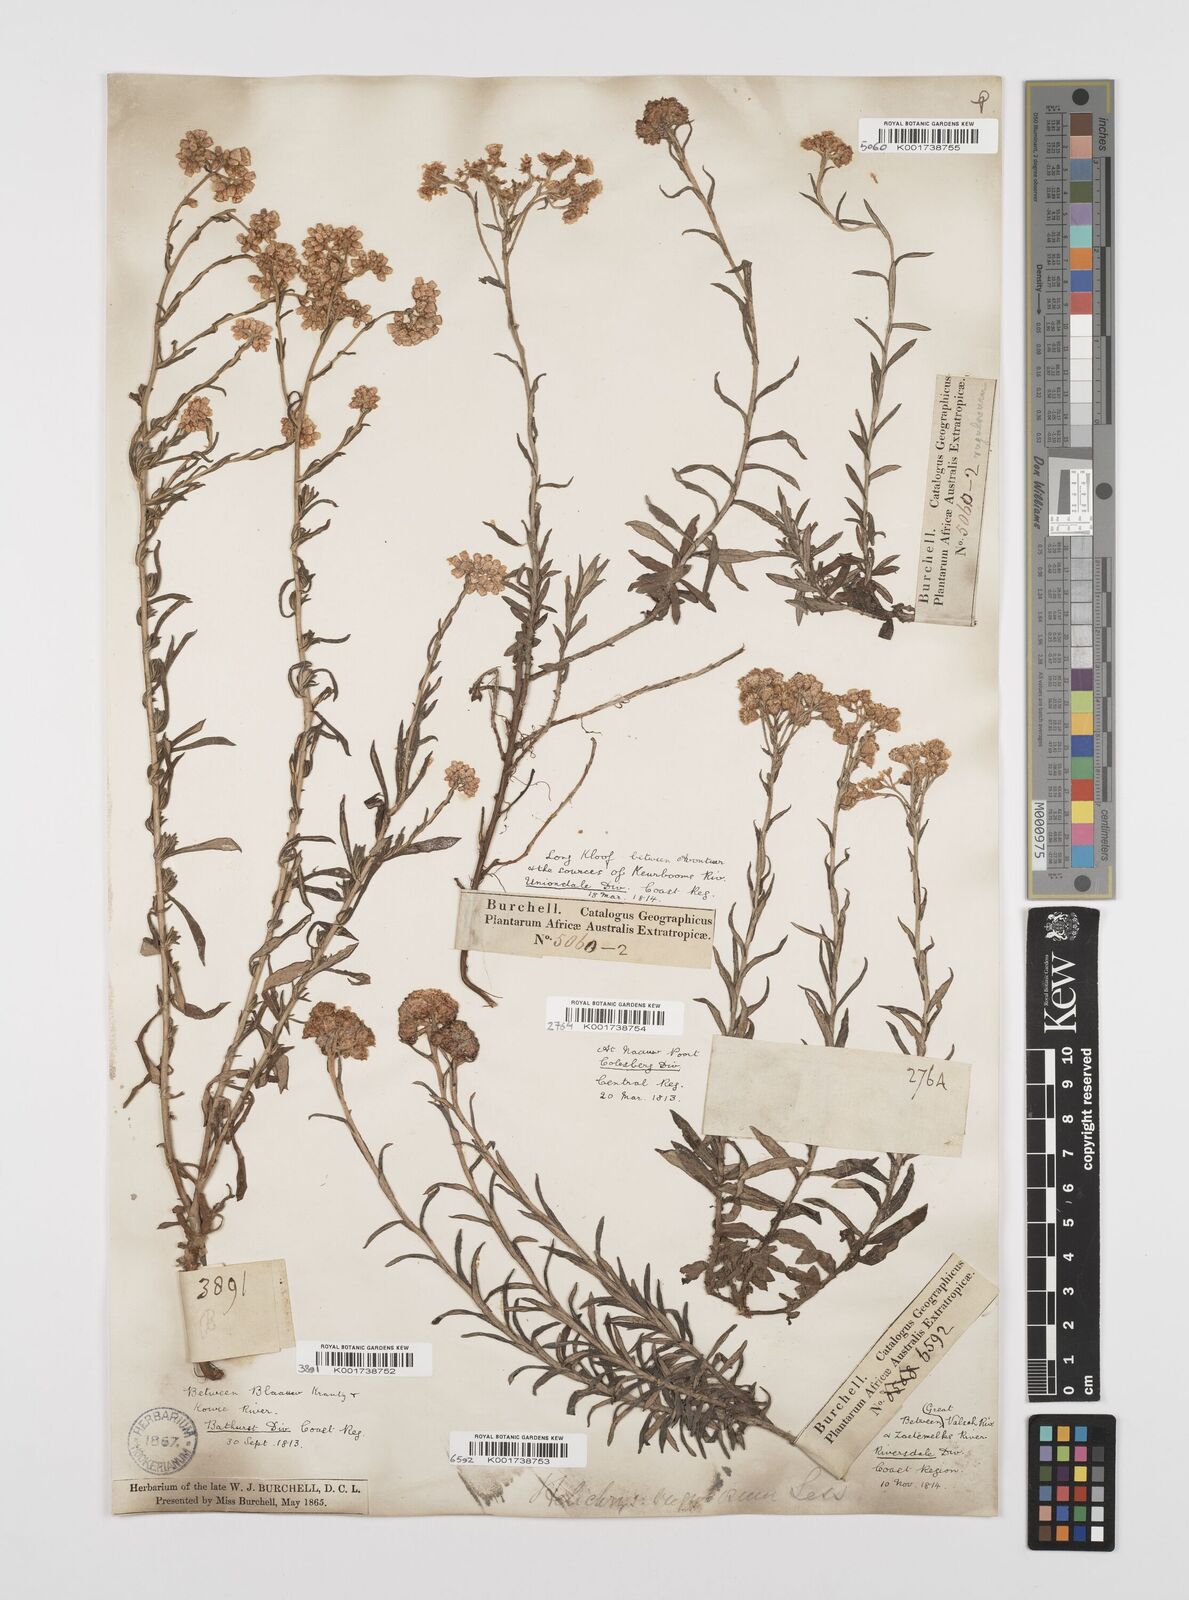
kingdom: Plantae
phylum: Tracheophyta
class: Magnoliopsida
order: Asterales
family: Asteraceae
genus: Helichrysum
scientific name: Helichrysum rugulosum
